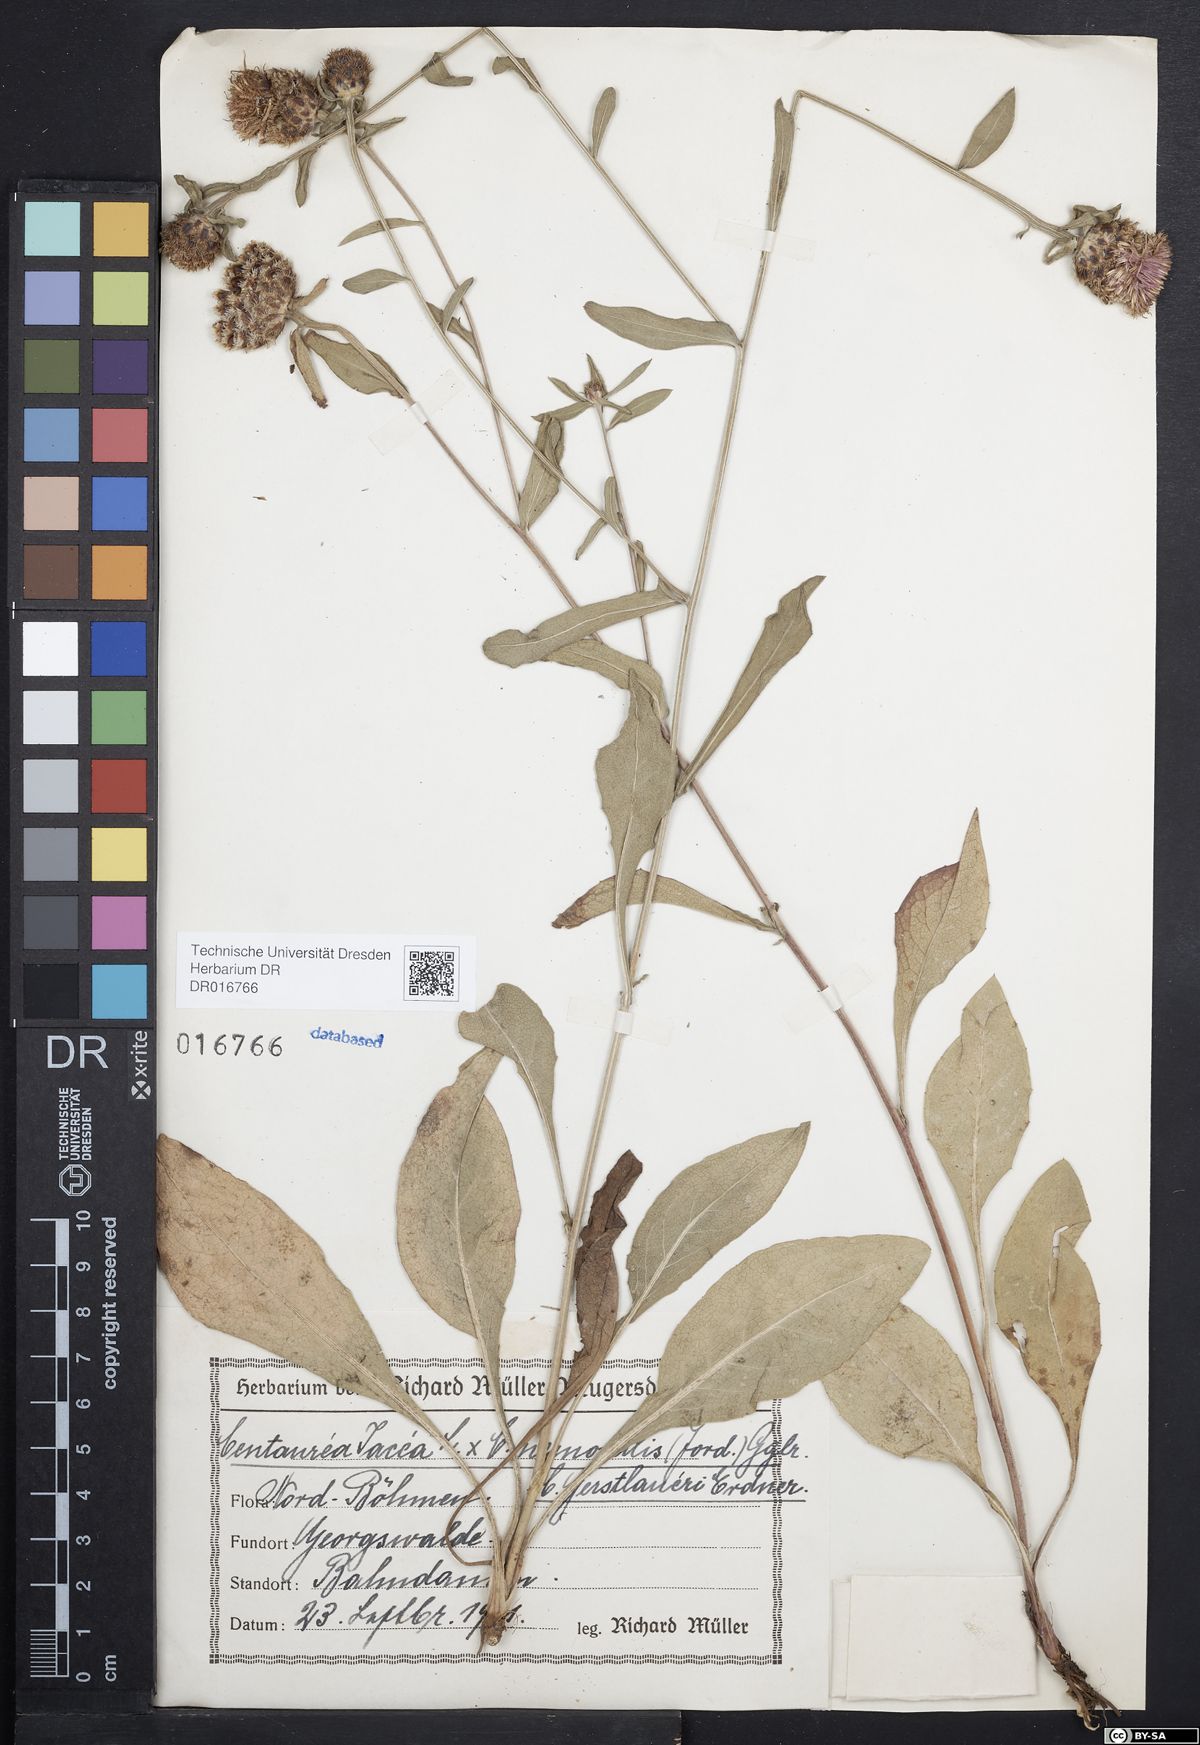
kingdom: Plantae
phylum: Tracheophyta
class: Magnoliopsida
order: Asterales
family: Asteraceae
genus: Centaurea
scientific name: Centaurea jacea
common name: Brown knapweed
